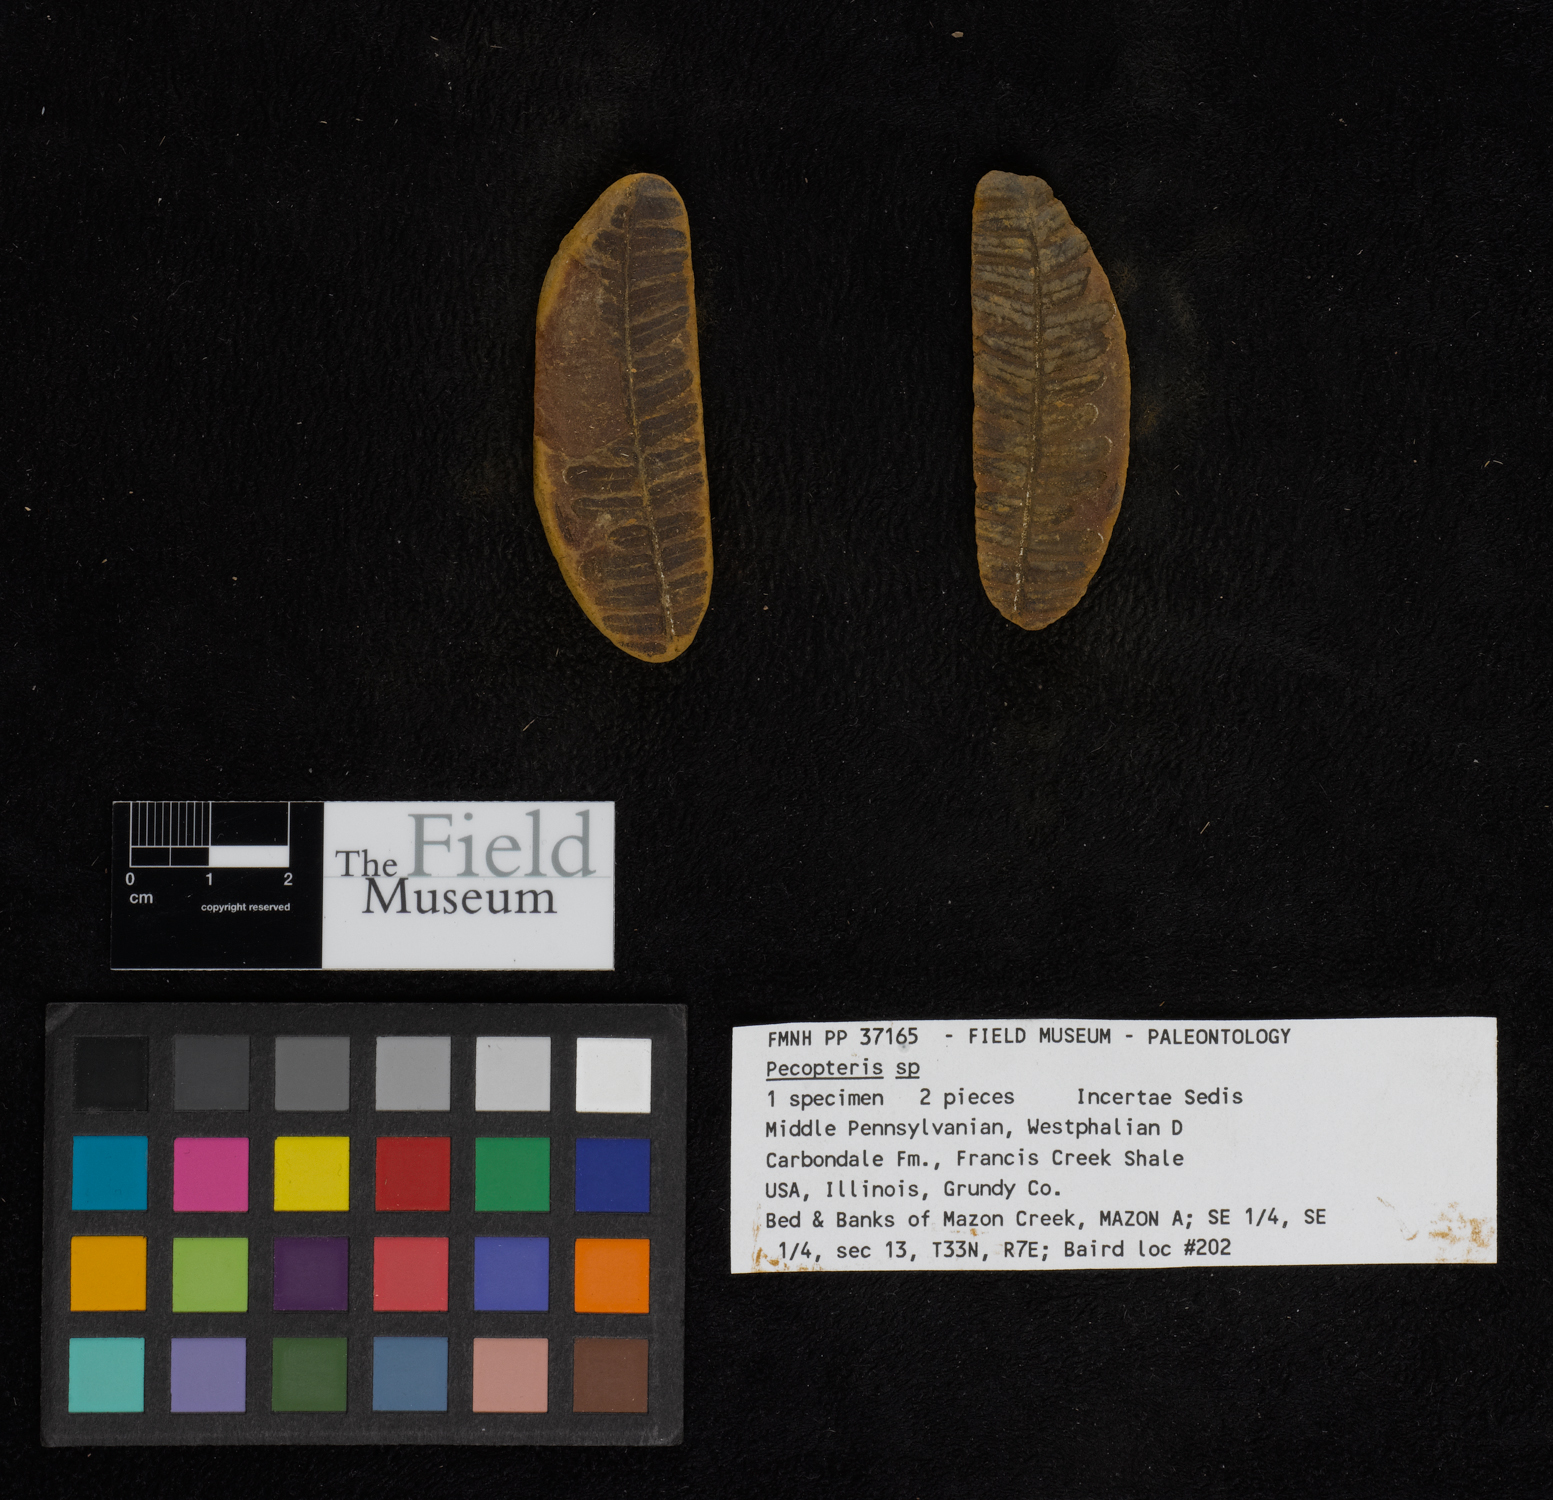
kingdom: Plantae
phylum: Tracheophyta
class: Polypodiopsida
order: Marattiales
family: Asterothecaceae
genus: Pecopteris
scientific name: Pecopteris
